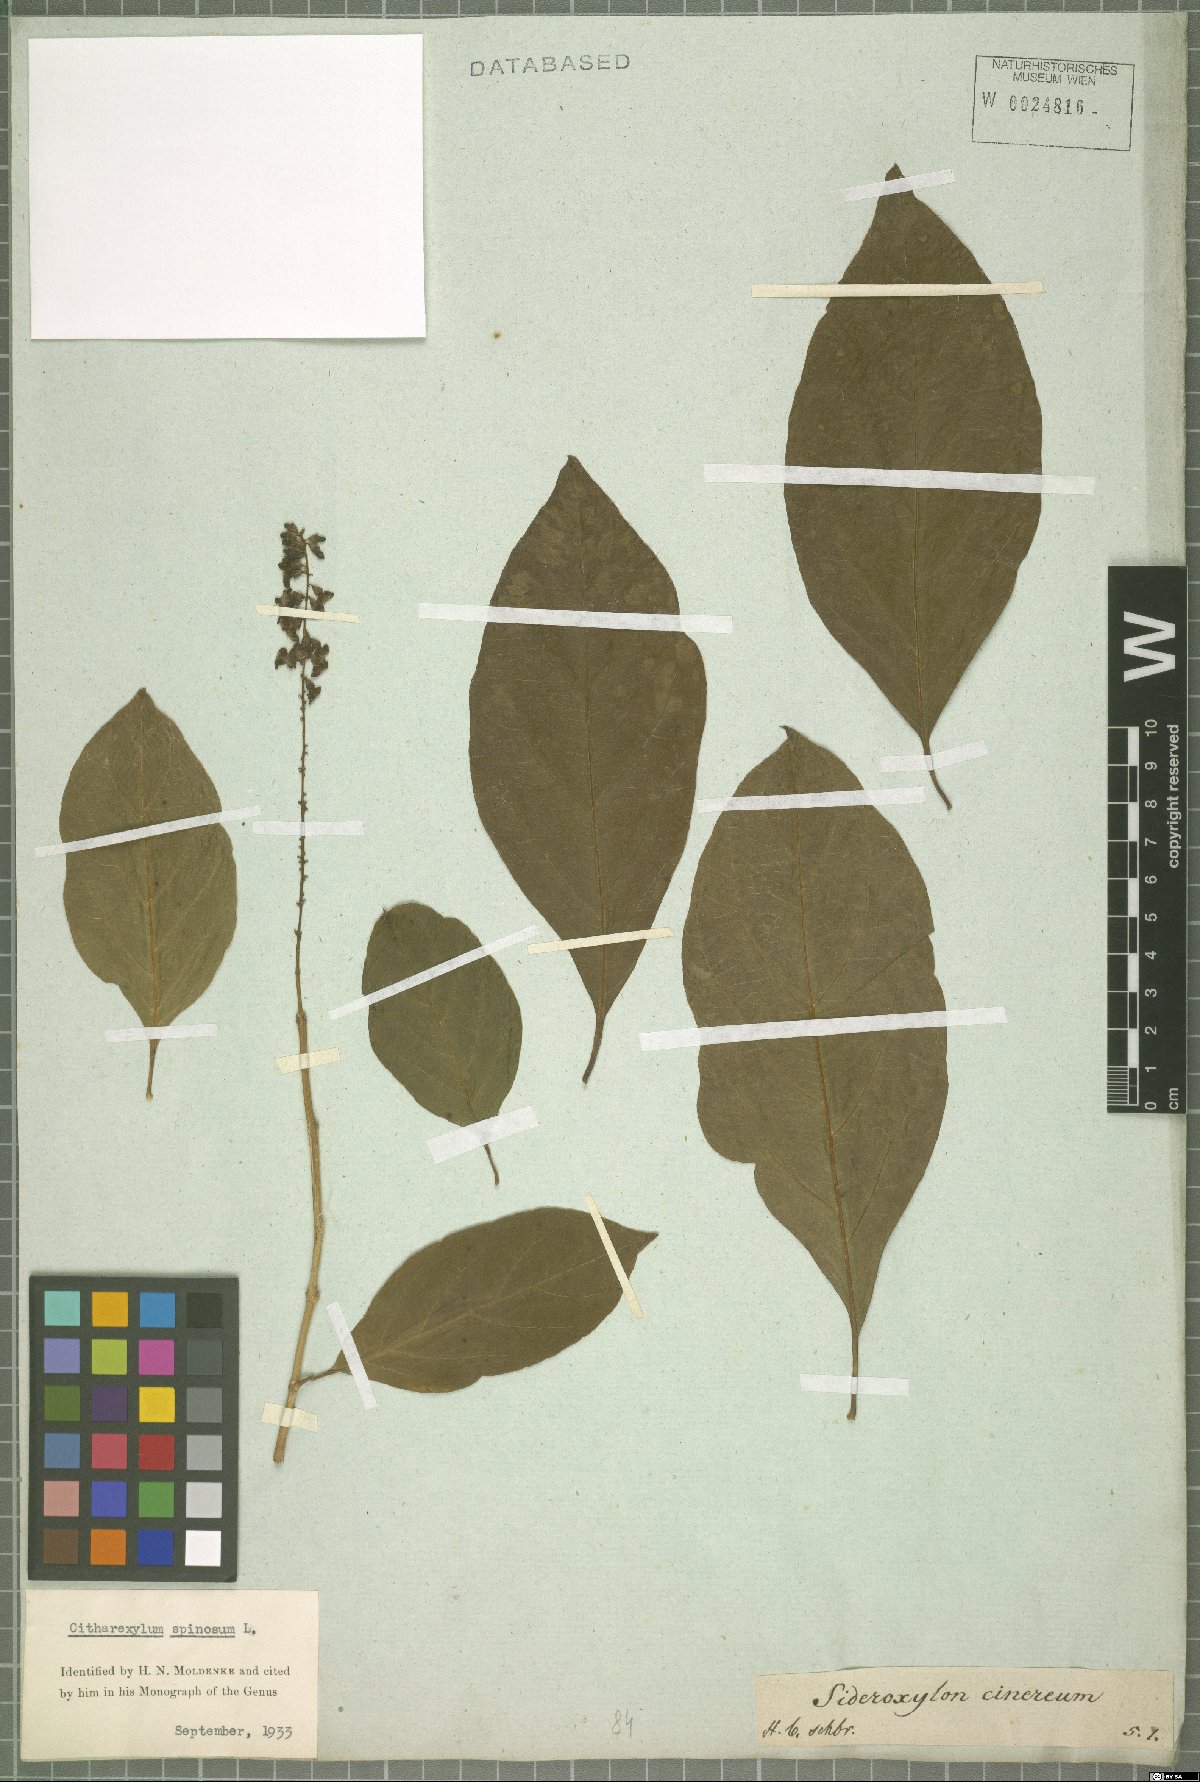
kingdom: Plantae
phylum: Tracheophyta
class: Magnoliopsida
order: Lamiales
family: Verbenaceae
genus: Citharexylum
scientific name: Citharexylum spinosum
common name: Fiddlewood
